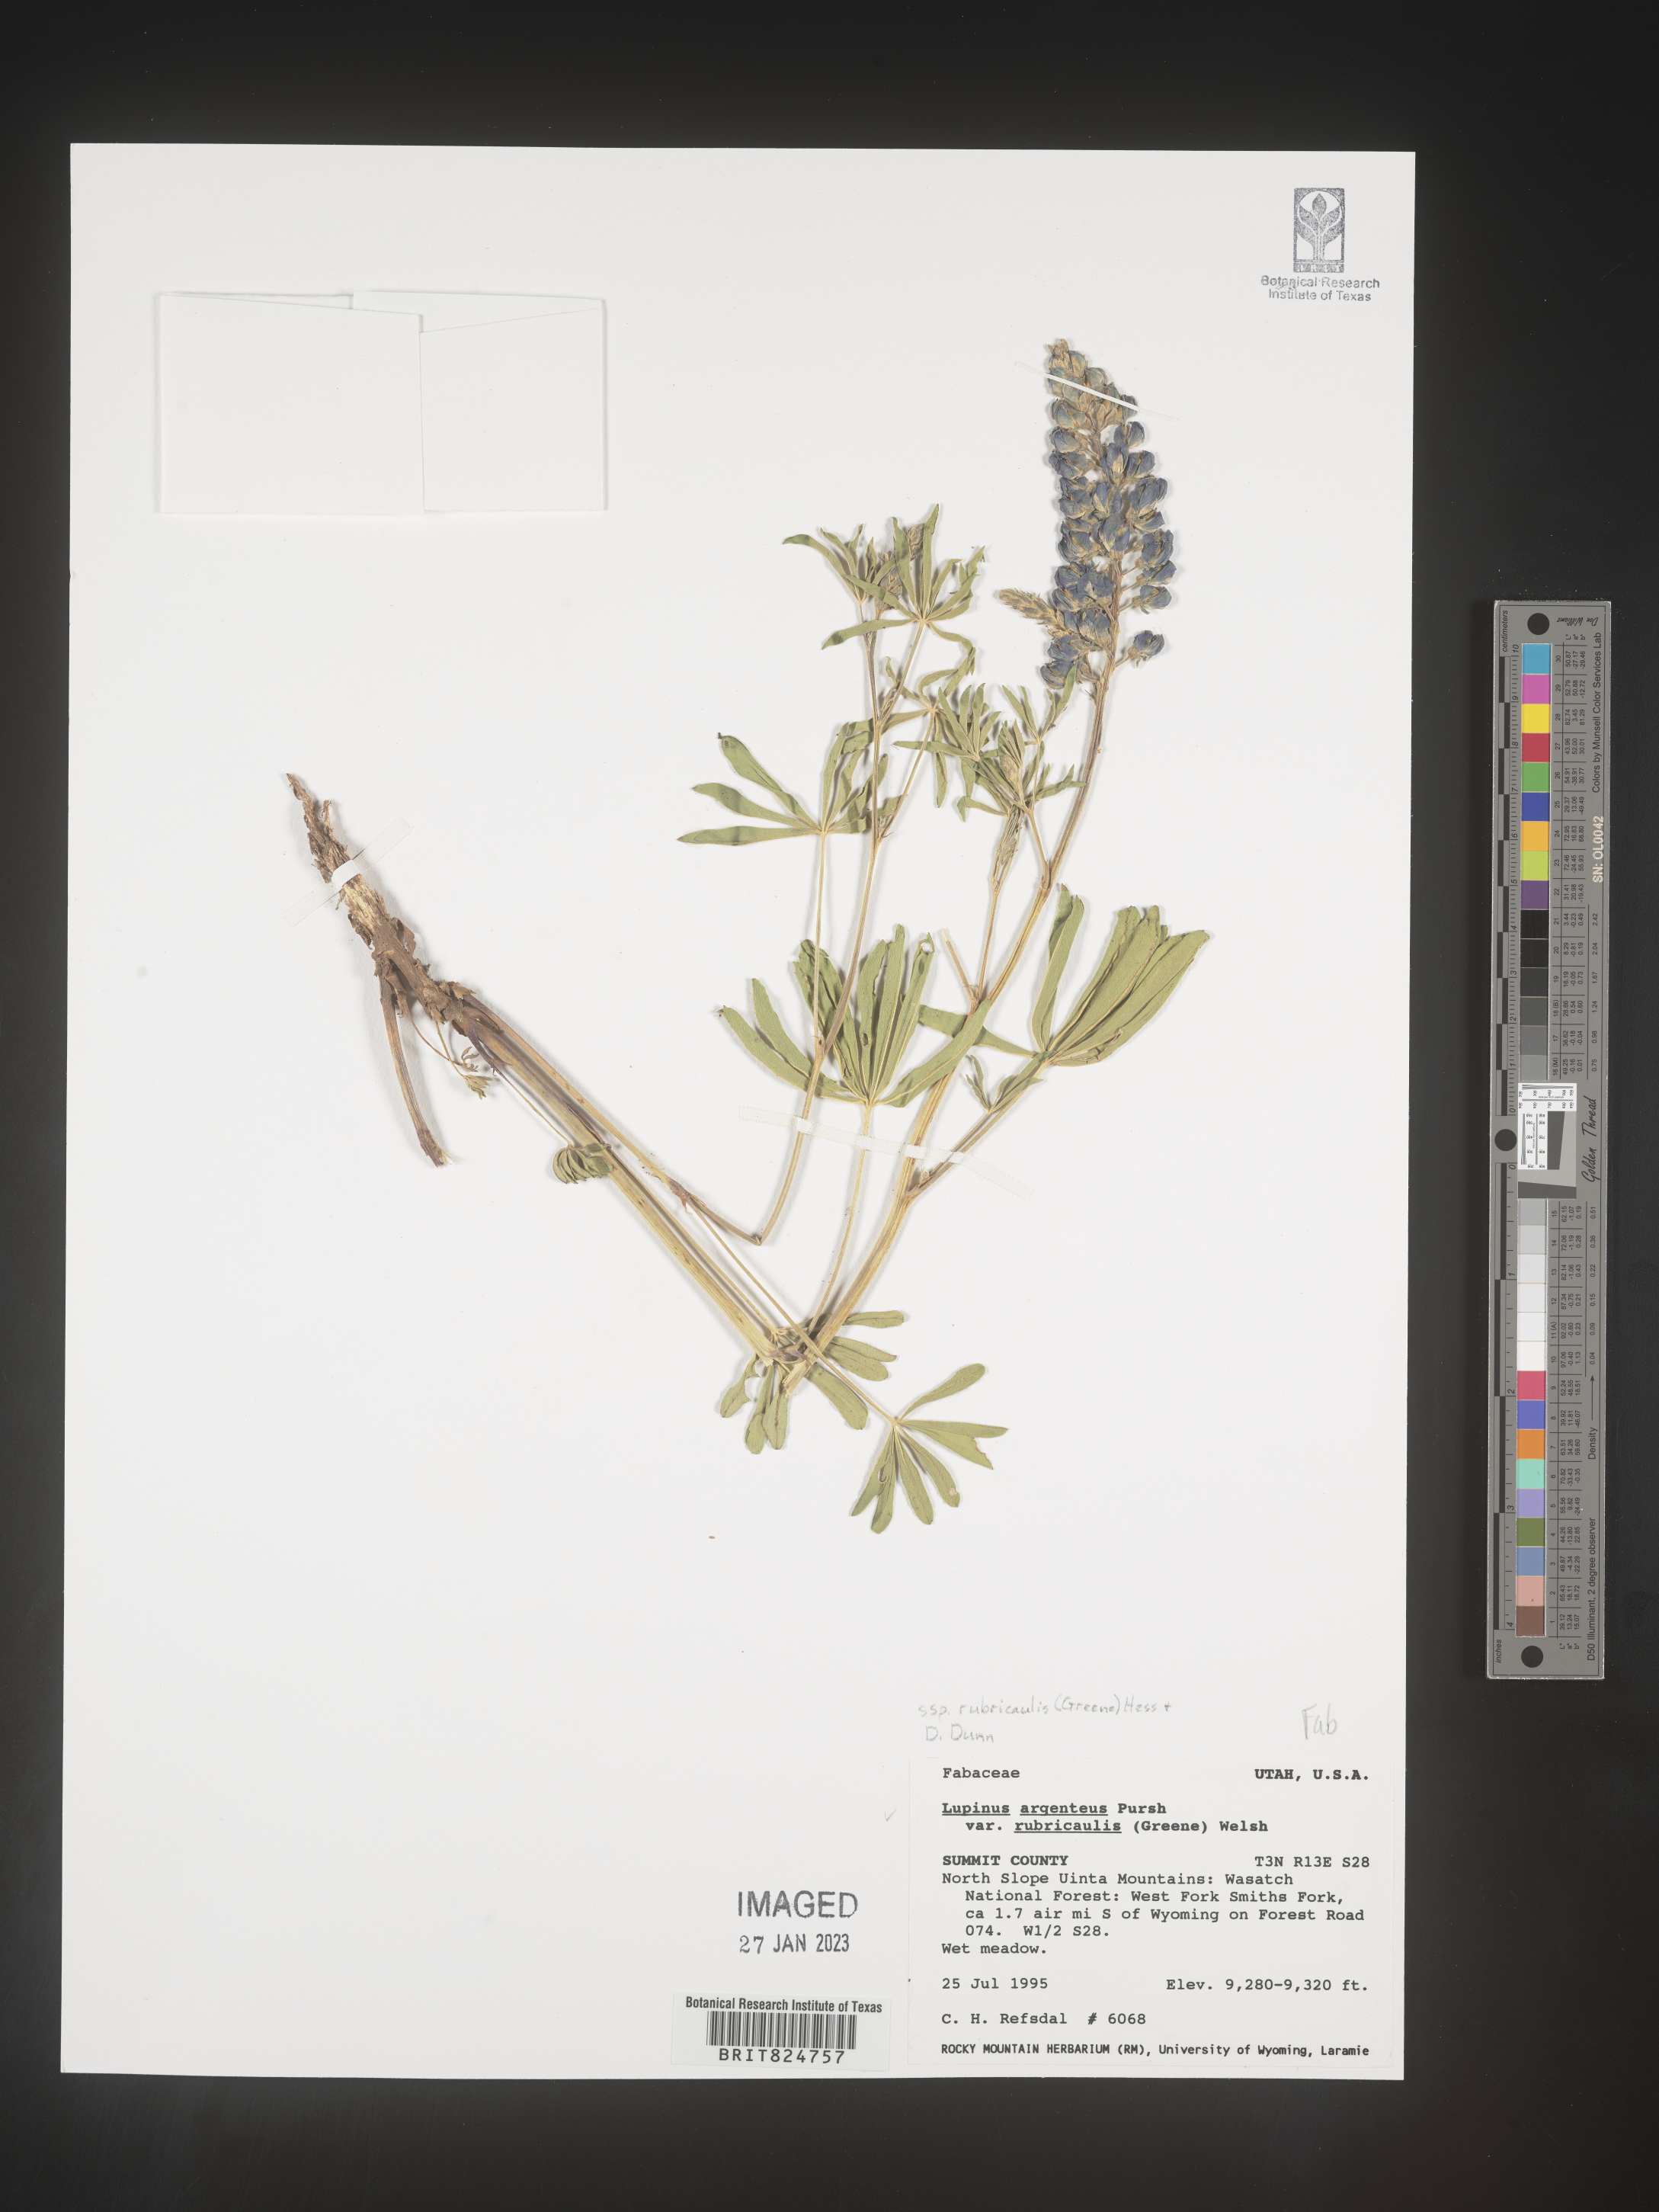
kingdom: Plantae
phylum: Tracheophyta
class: Magnoliopsida
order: Fabales
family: Fabaceae
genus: Lupinus
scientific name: Lupinus argenteus
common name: Silvery lupine
